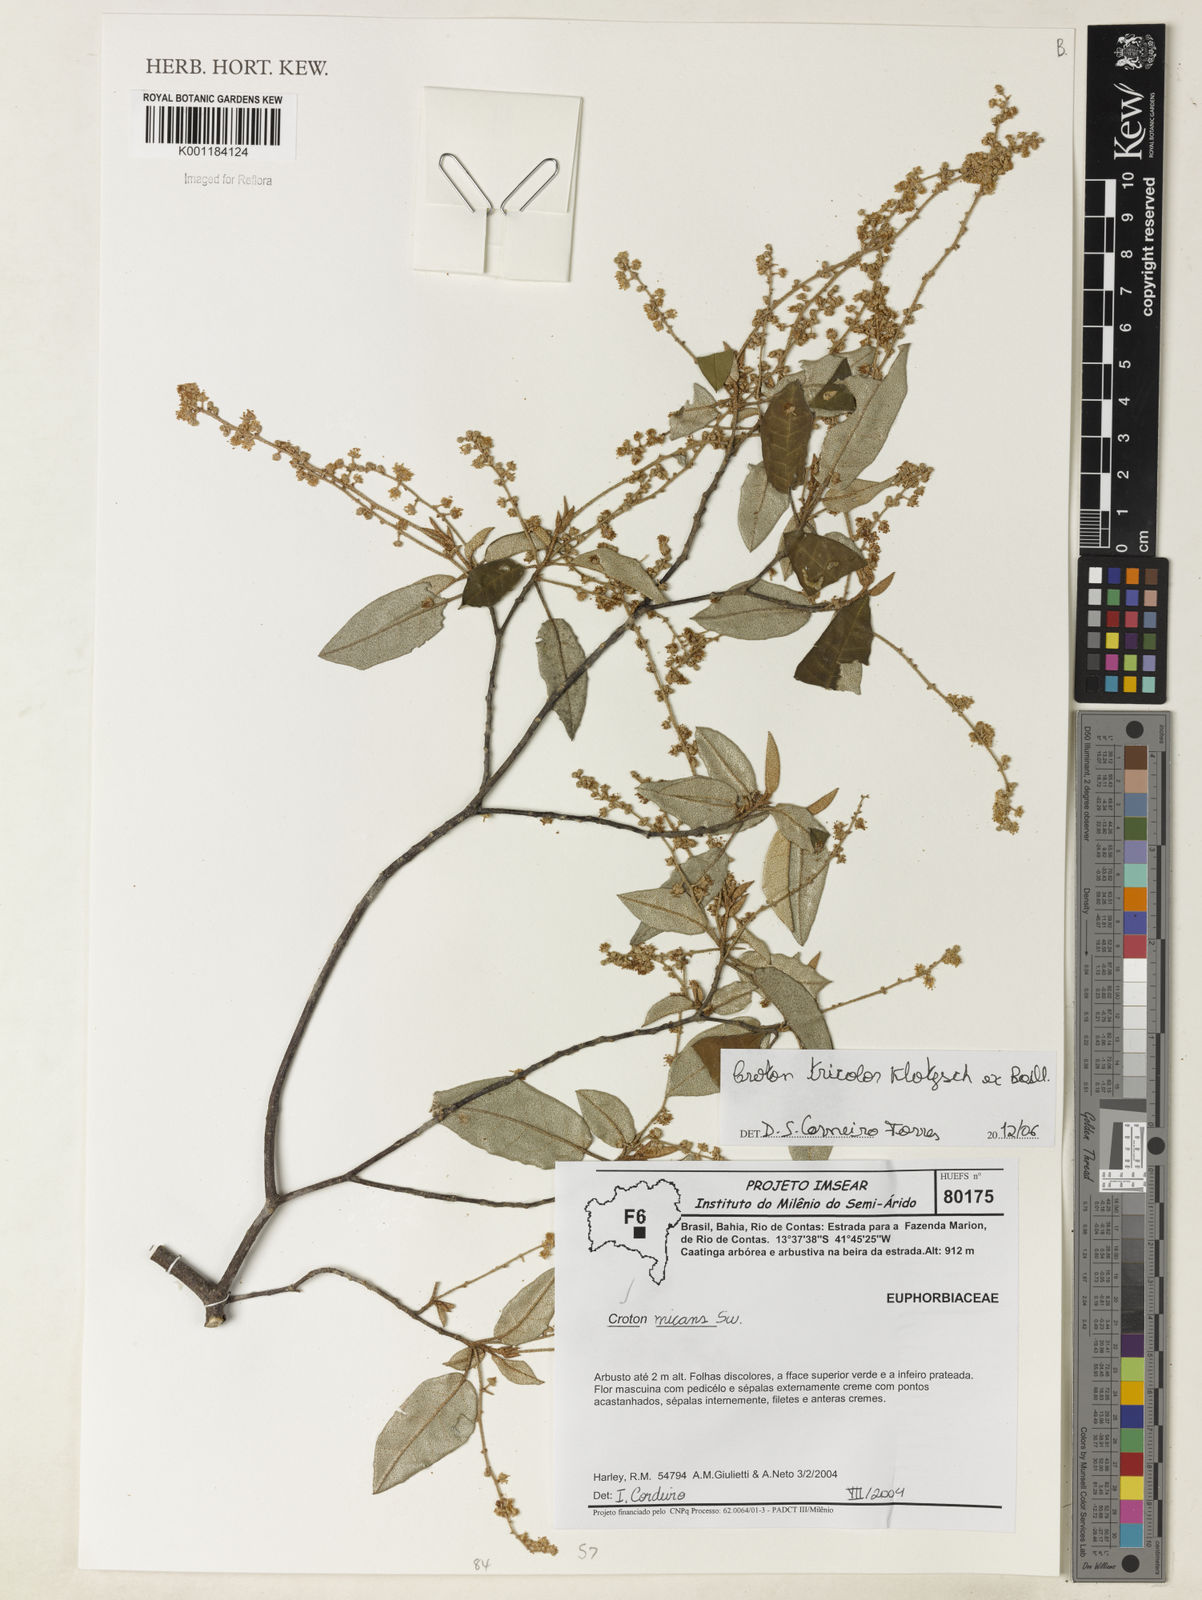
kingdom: Plantae
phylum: Tracheophyta
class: Magnoliopsida
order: Malpighiales
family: Euphorbiaceae
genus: Croton
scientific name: Croton
